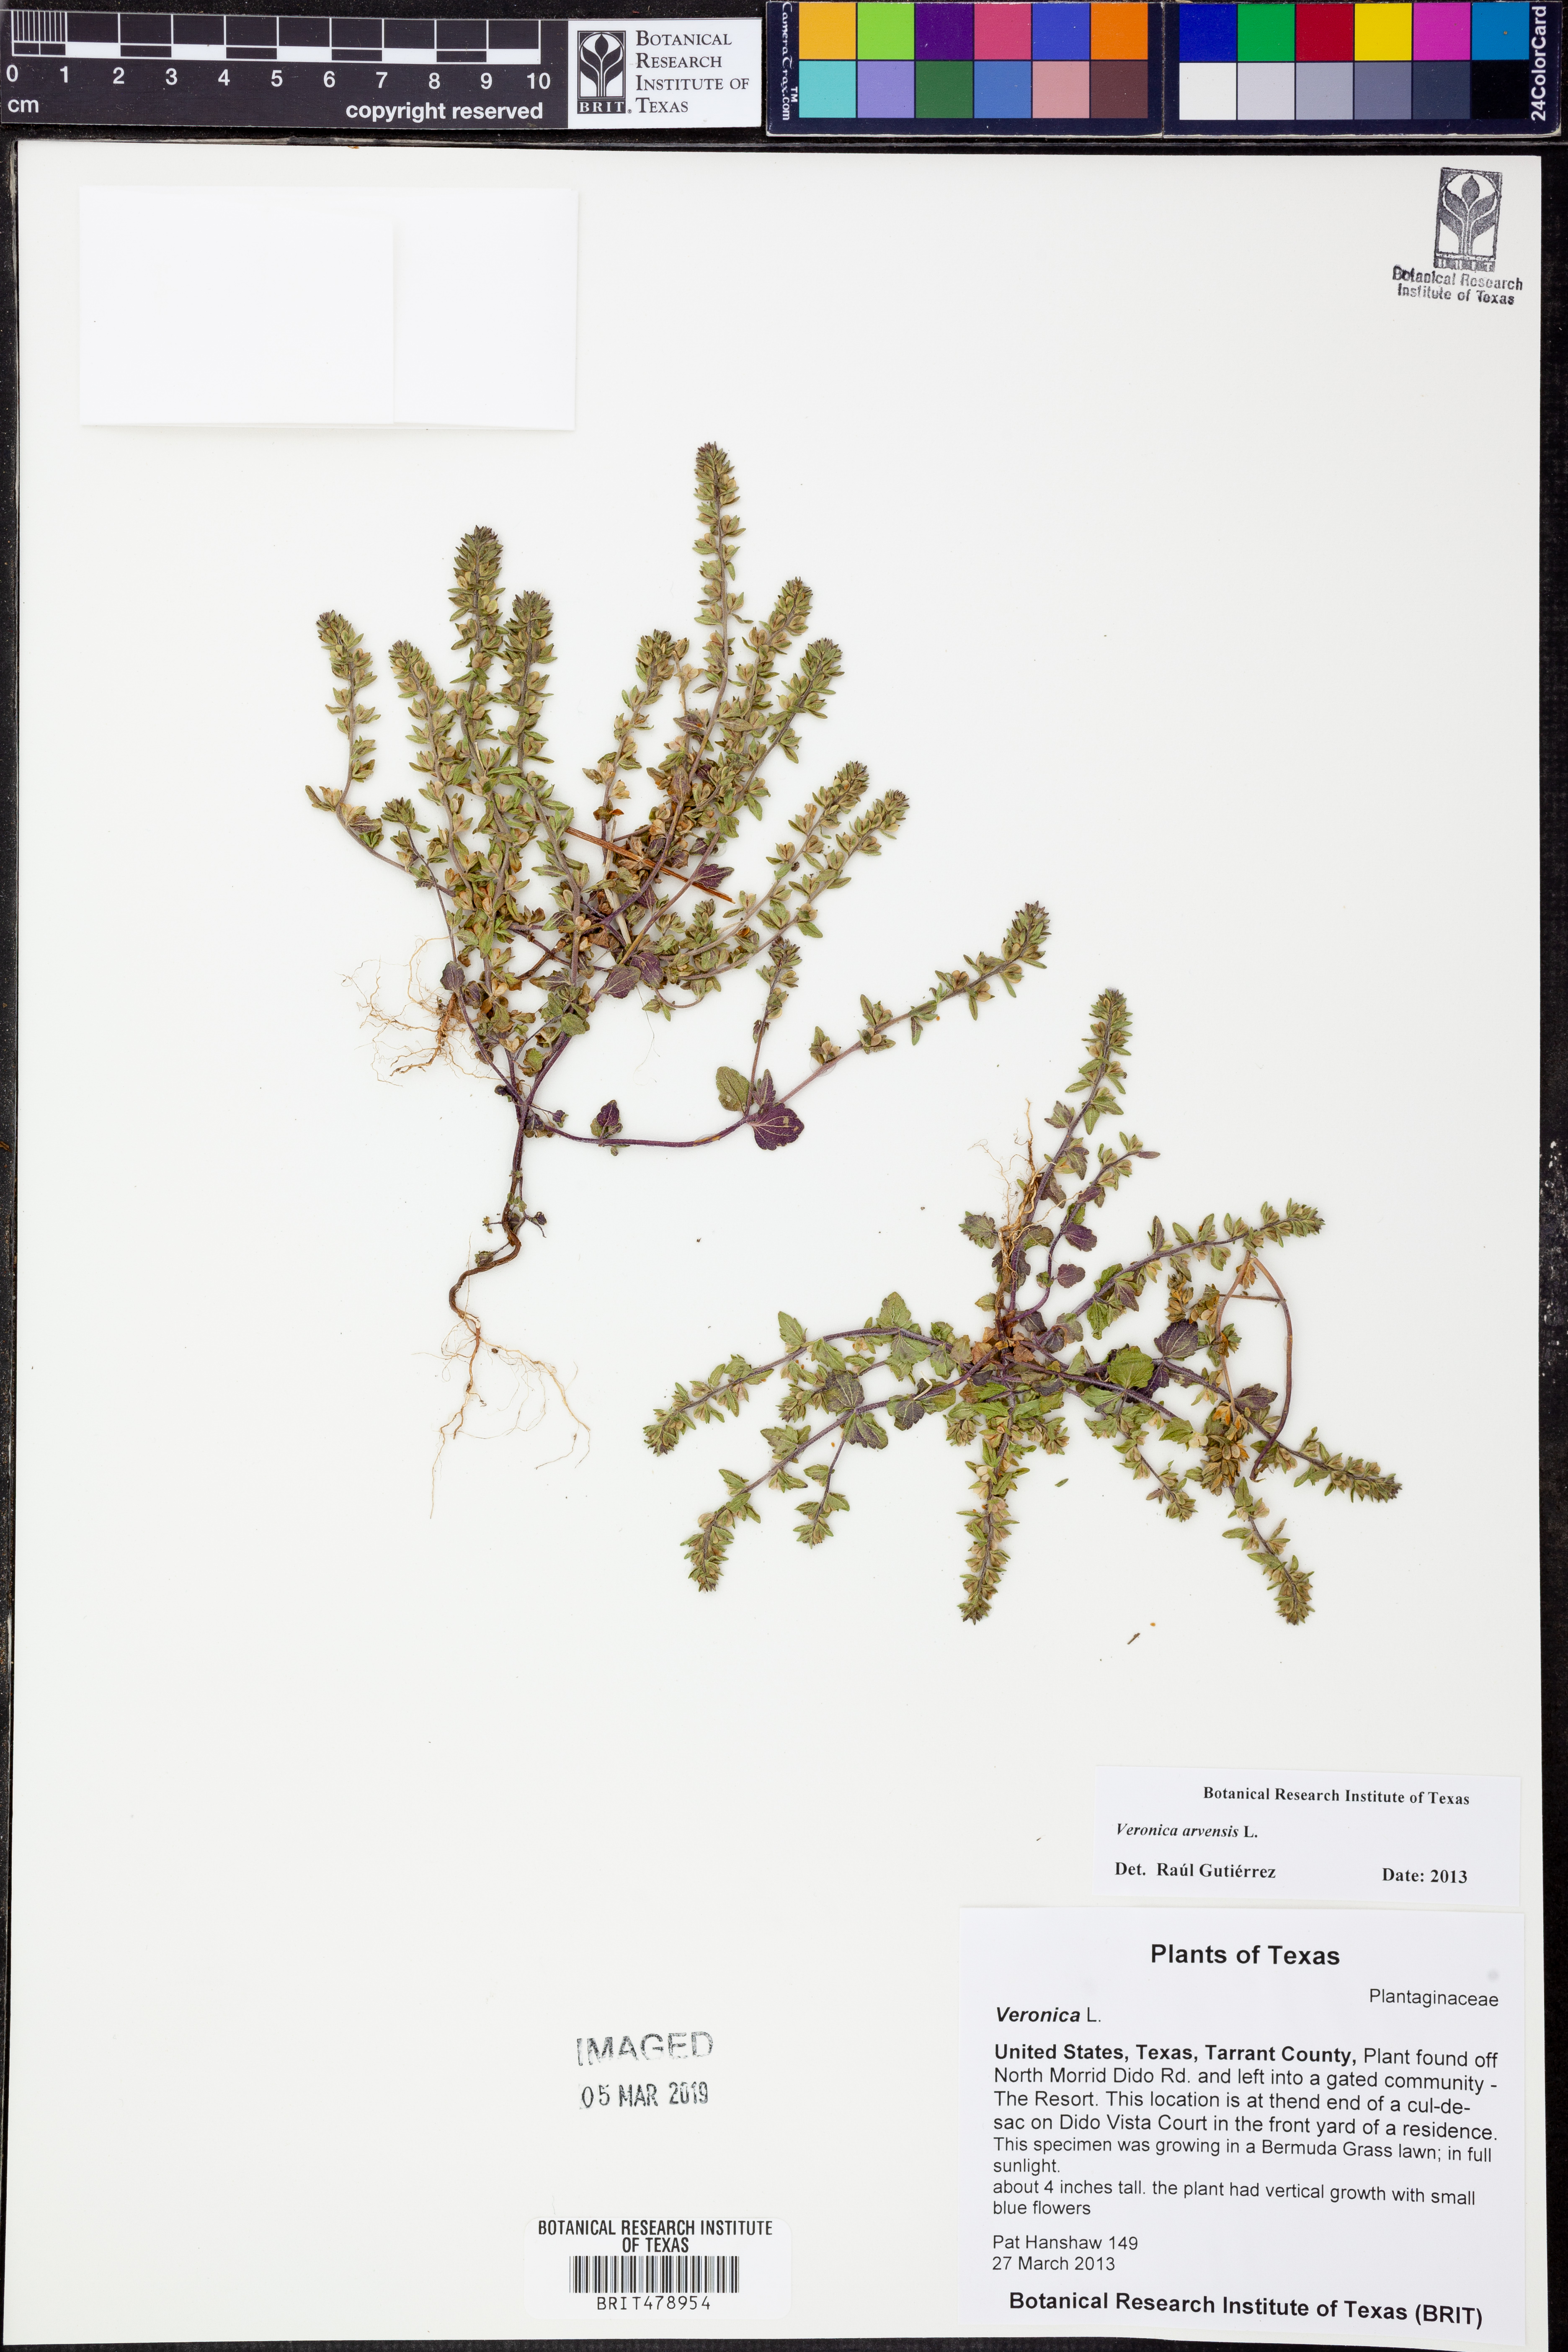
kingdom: Plantae
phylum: Tracheophyta
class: Magnoliopsida
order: Lamiales
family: Plantaginaceae
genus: Veronica
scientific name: Veronica arvensis
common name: Corn speedwell
